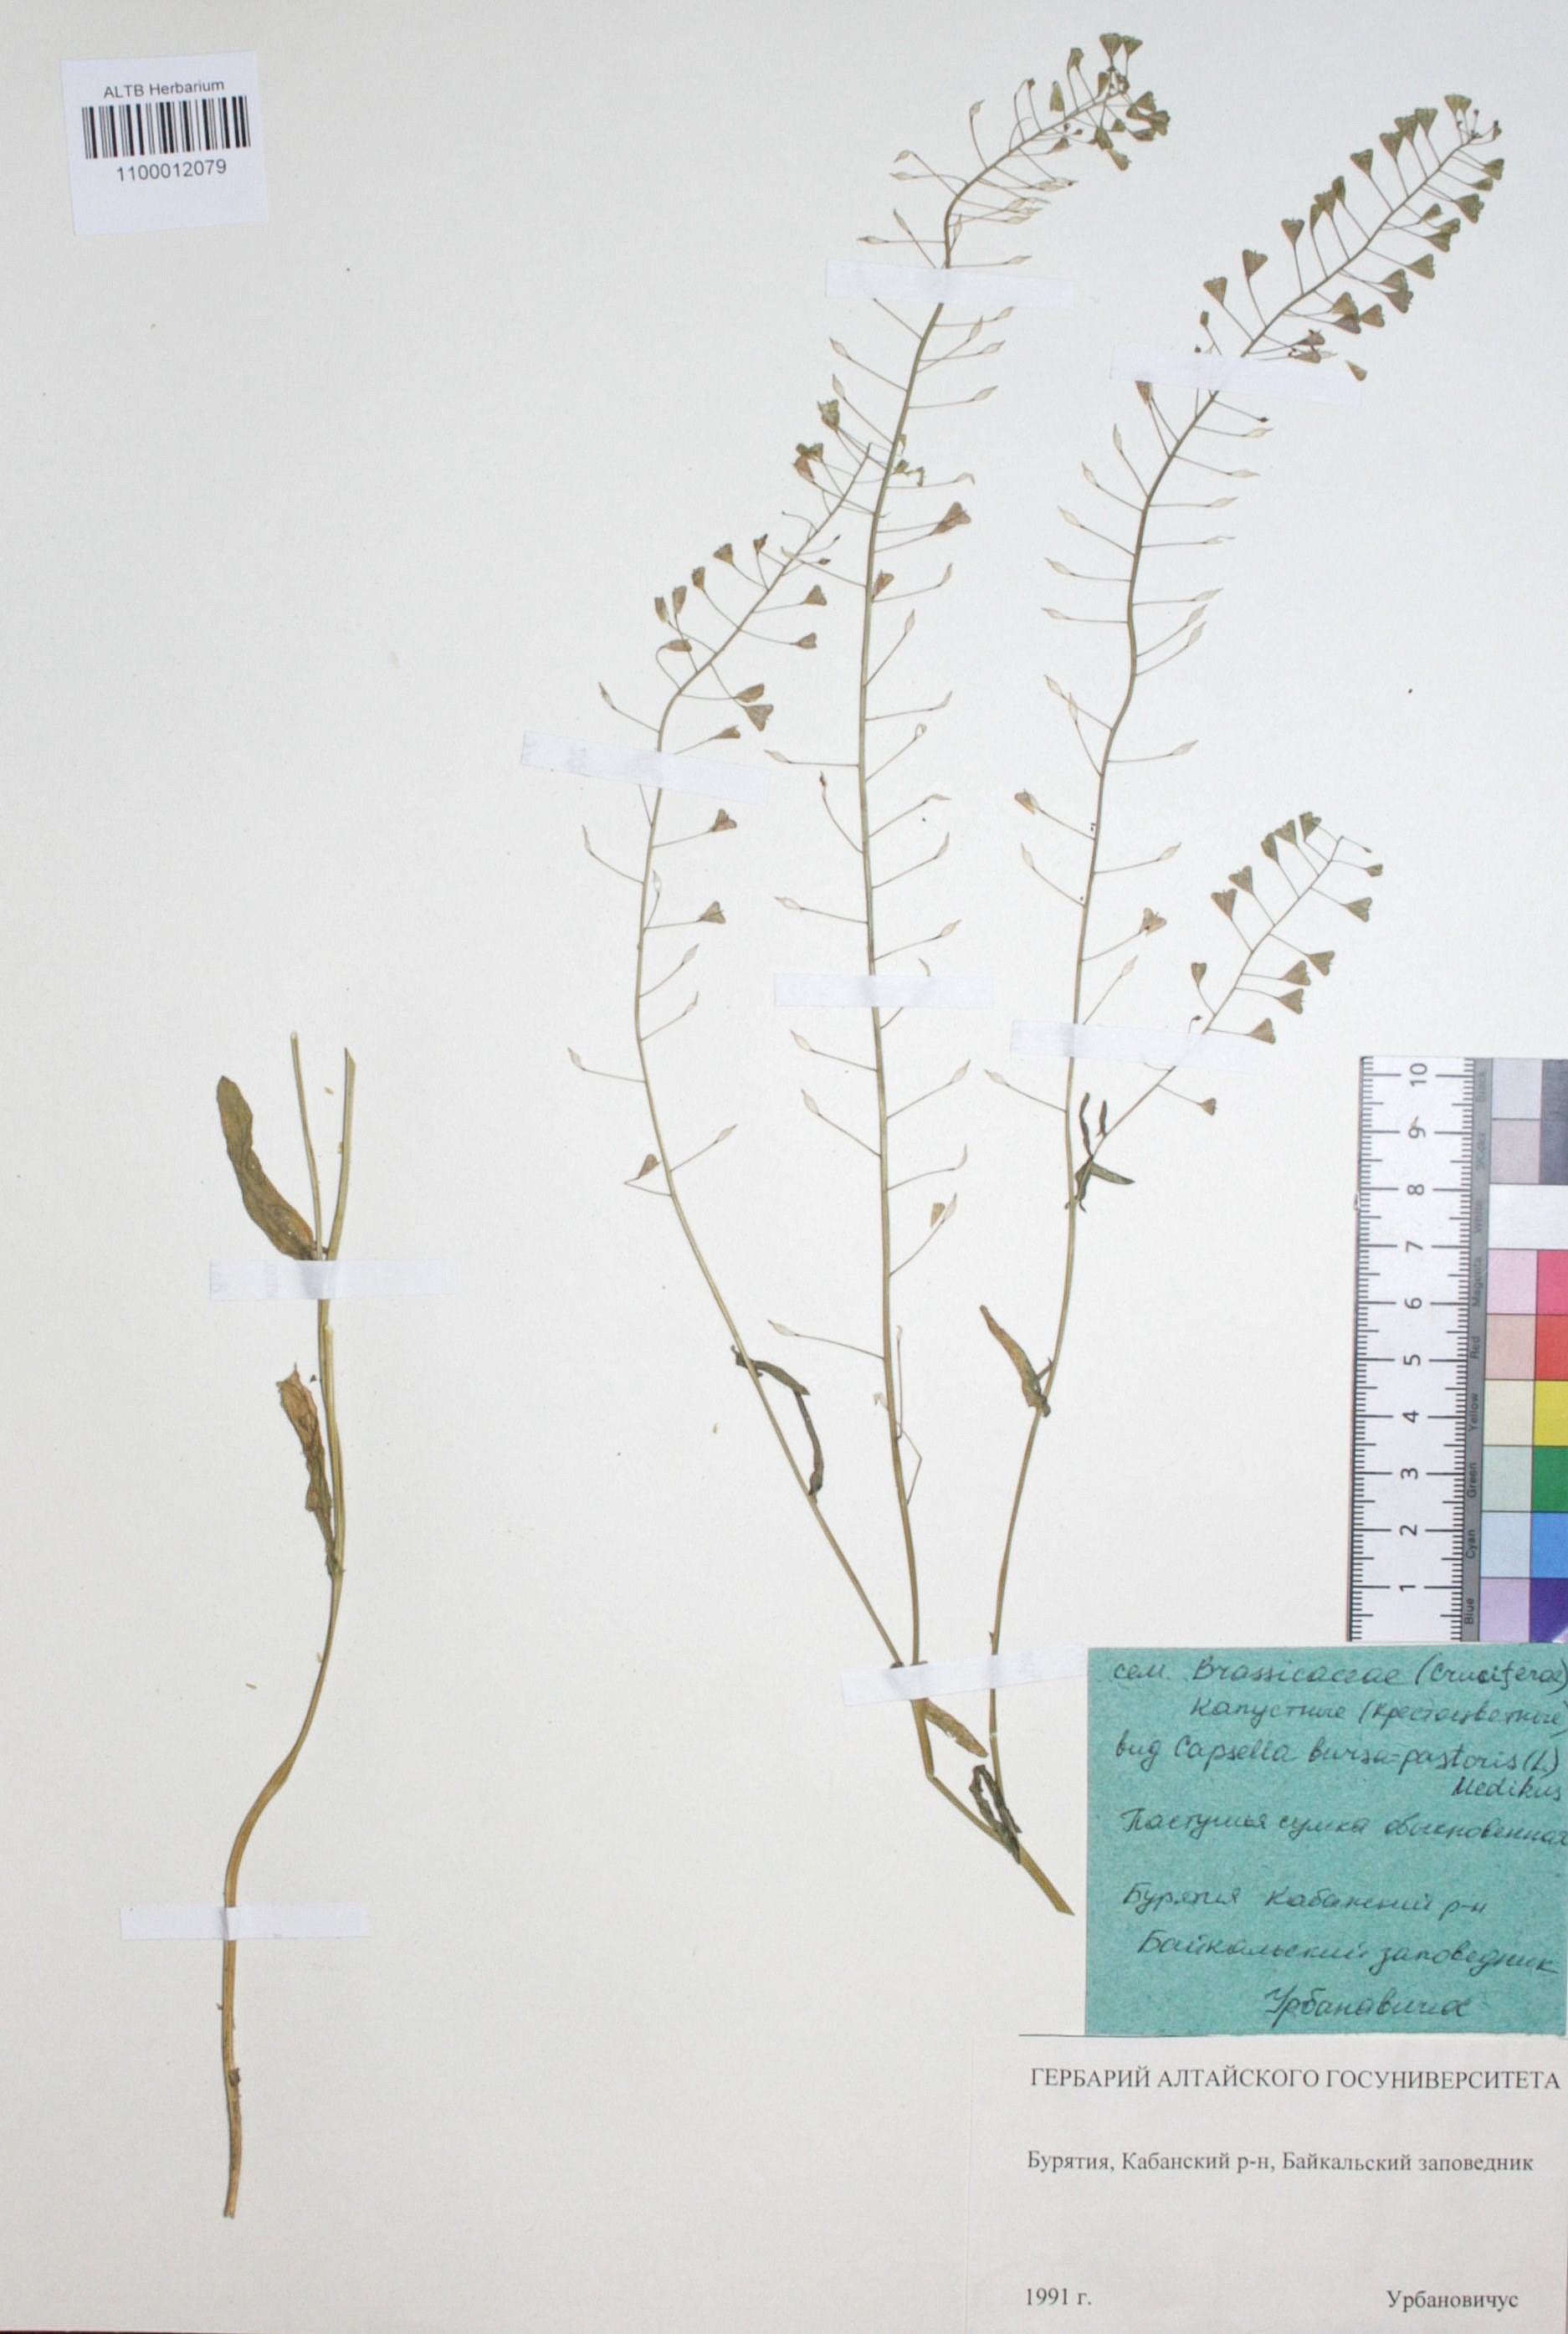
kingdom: Plantae
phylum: Tracheophyta
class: Magnoliopsida
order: Brassicales
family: Brassicaceae
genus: Capsella
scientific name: Capsella bursa-pastoris
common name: Shepherd's purse
